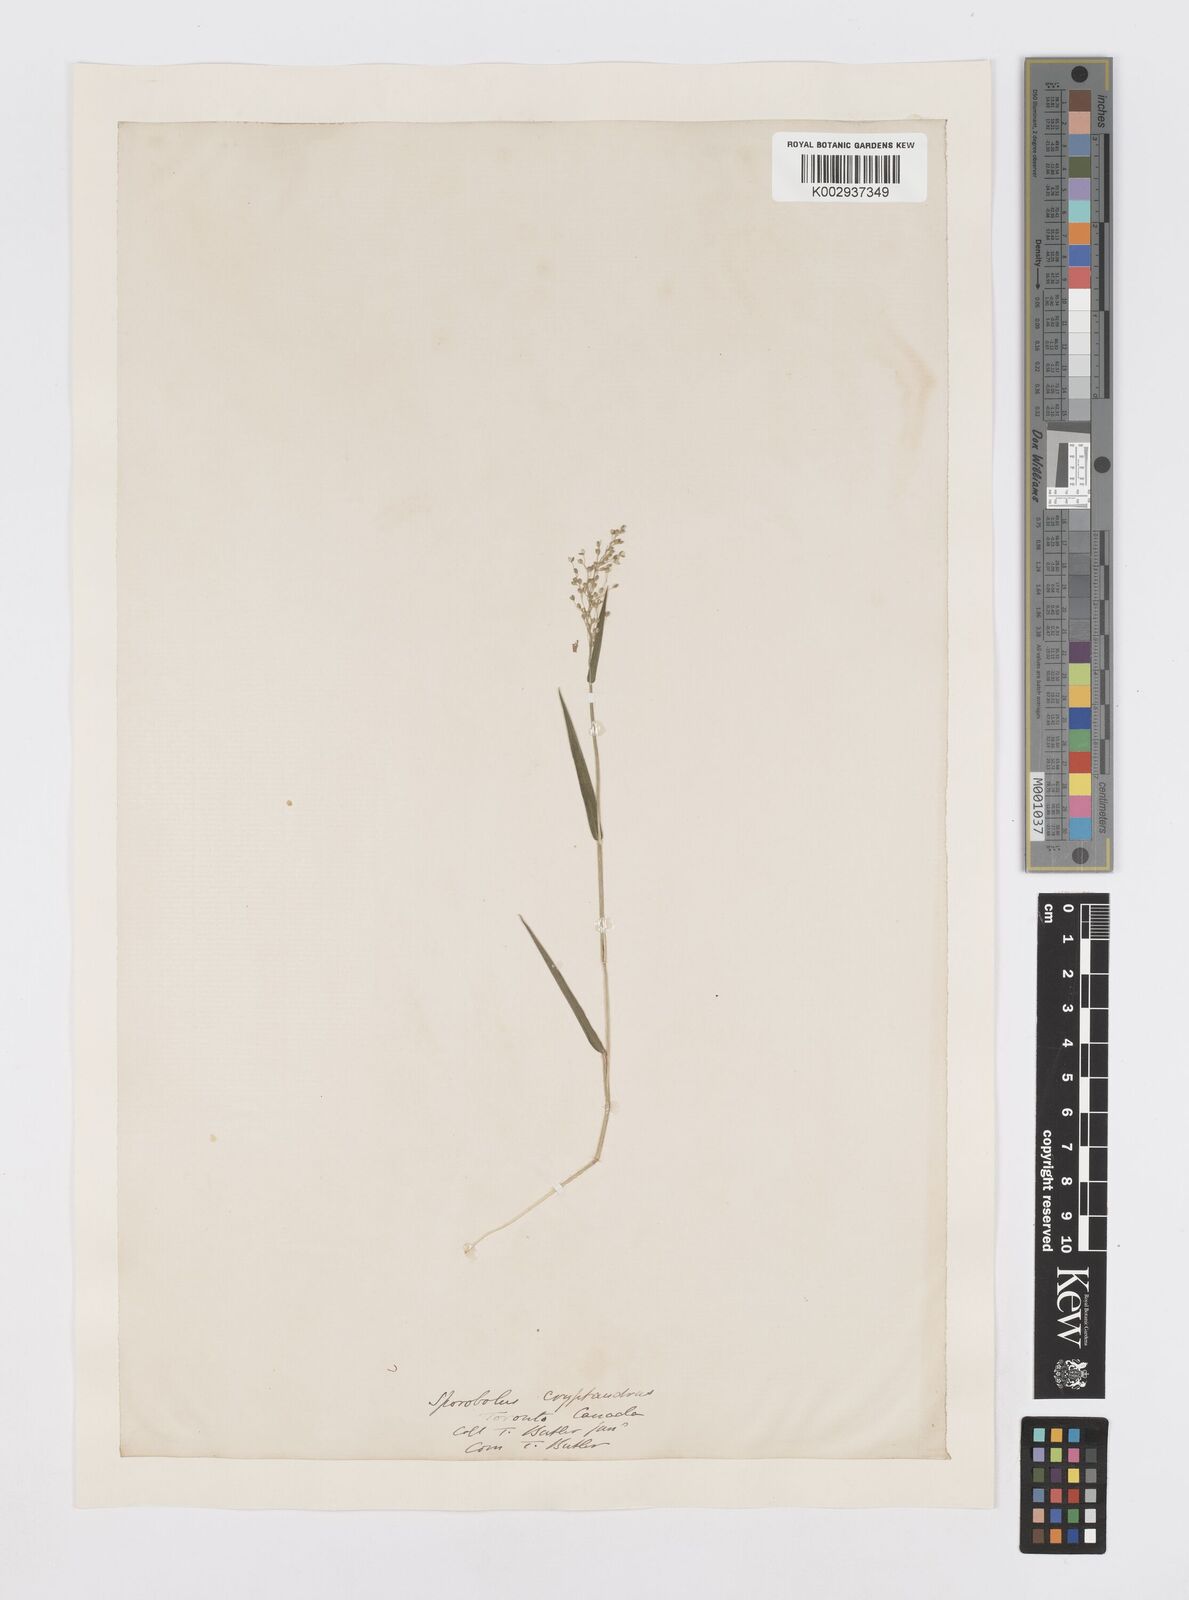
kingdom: Plantae
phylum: Tracheophyta
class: Liliopsida
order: Poales
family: Poaceae
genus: Sporobolus
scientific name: Sporobolus cryptandrus
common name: Sand dropseed
